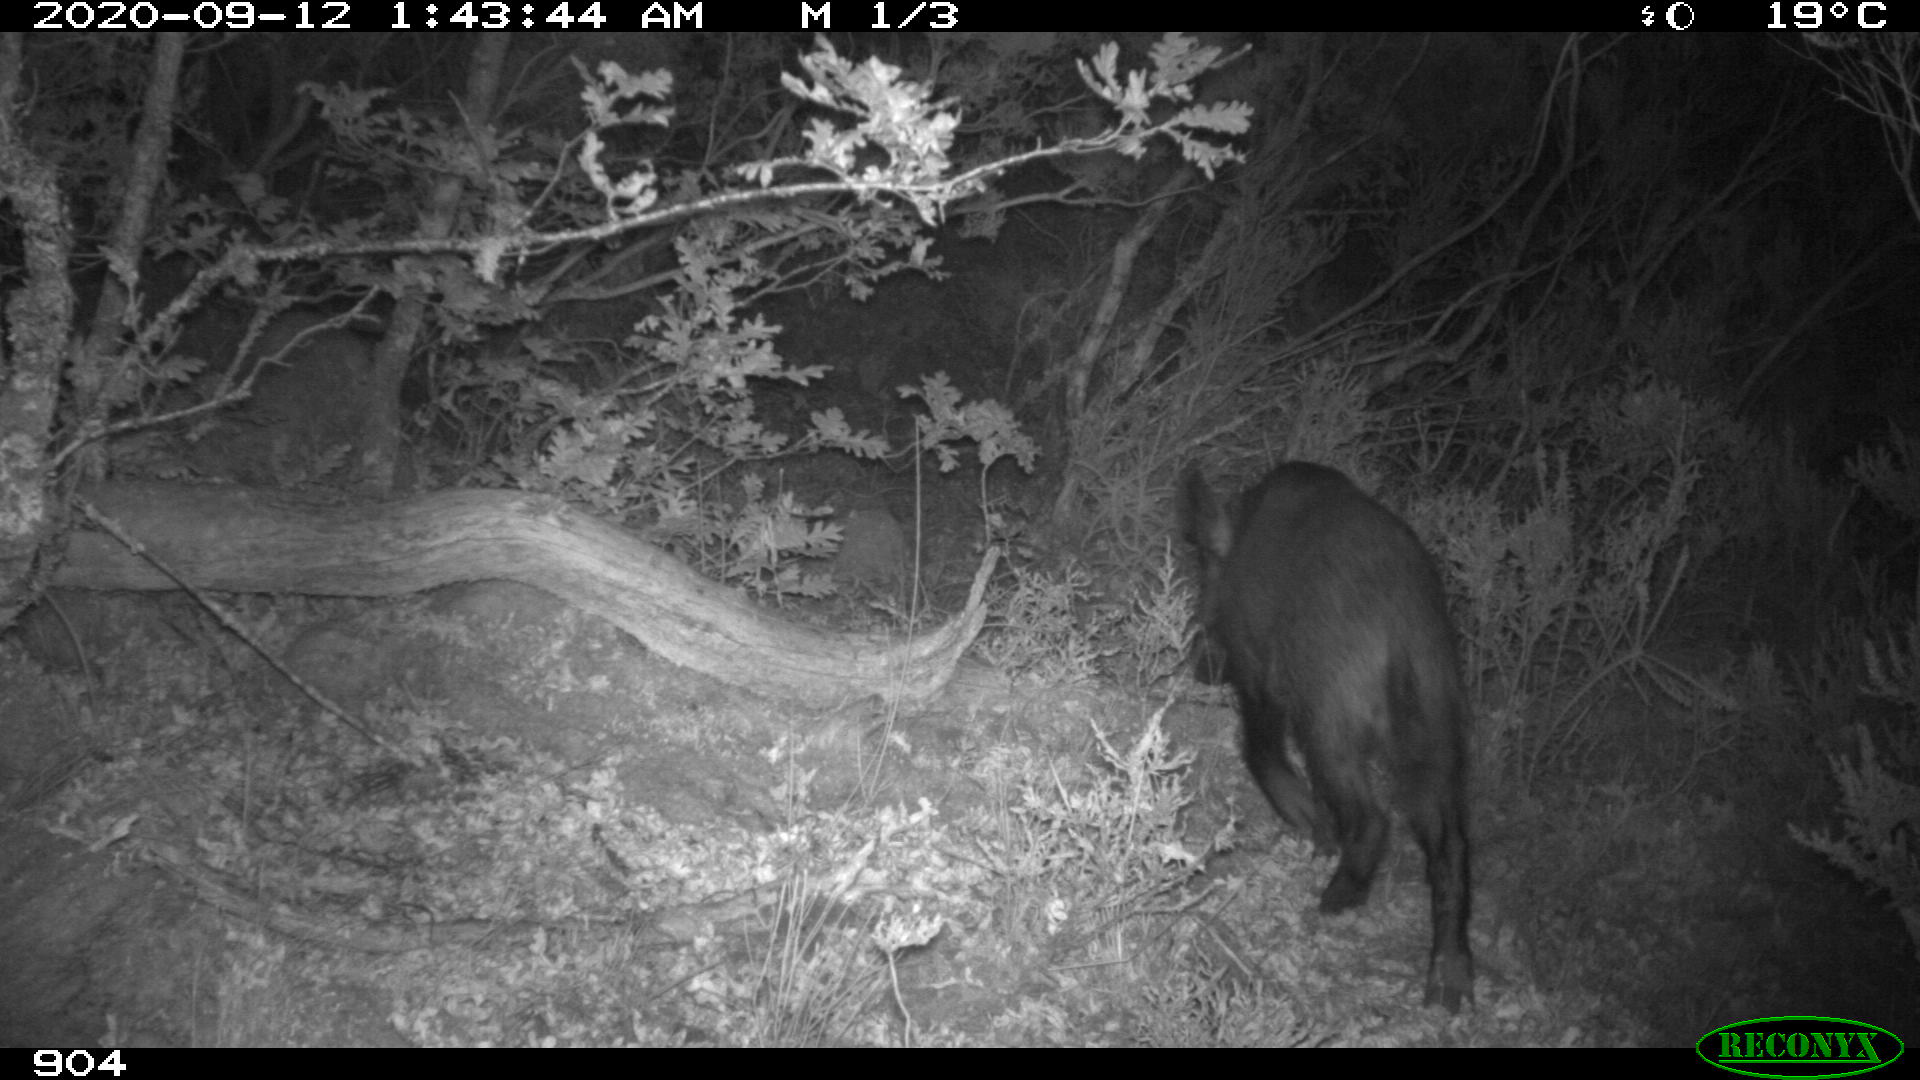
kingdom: Animalia
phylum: Chordata
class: Mammalia
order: Artiodactyla
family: Suidae
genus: Sus
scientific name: Sus scrofa
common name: Wild boar
